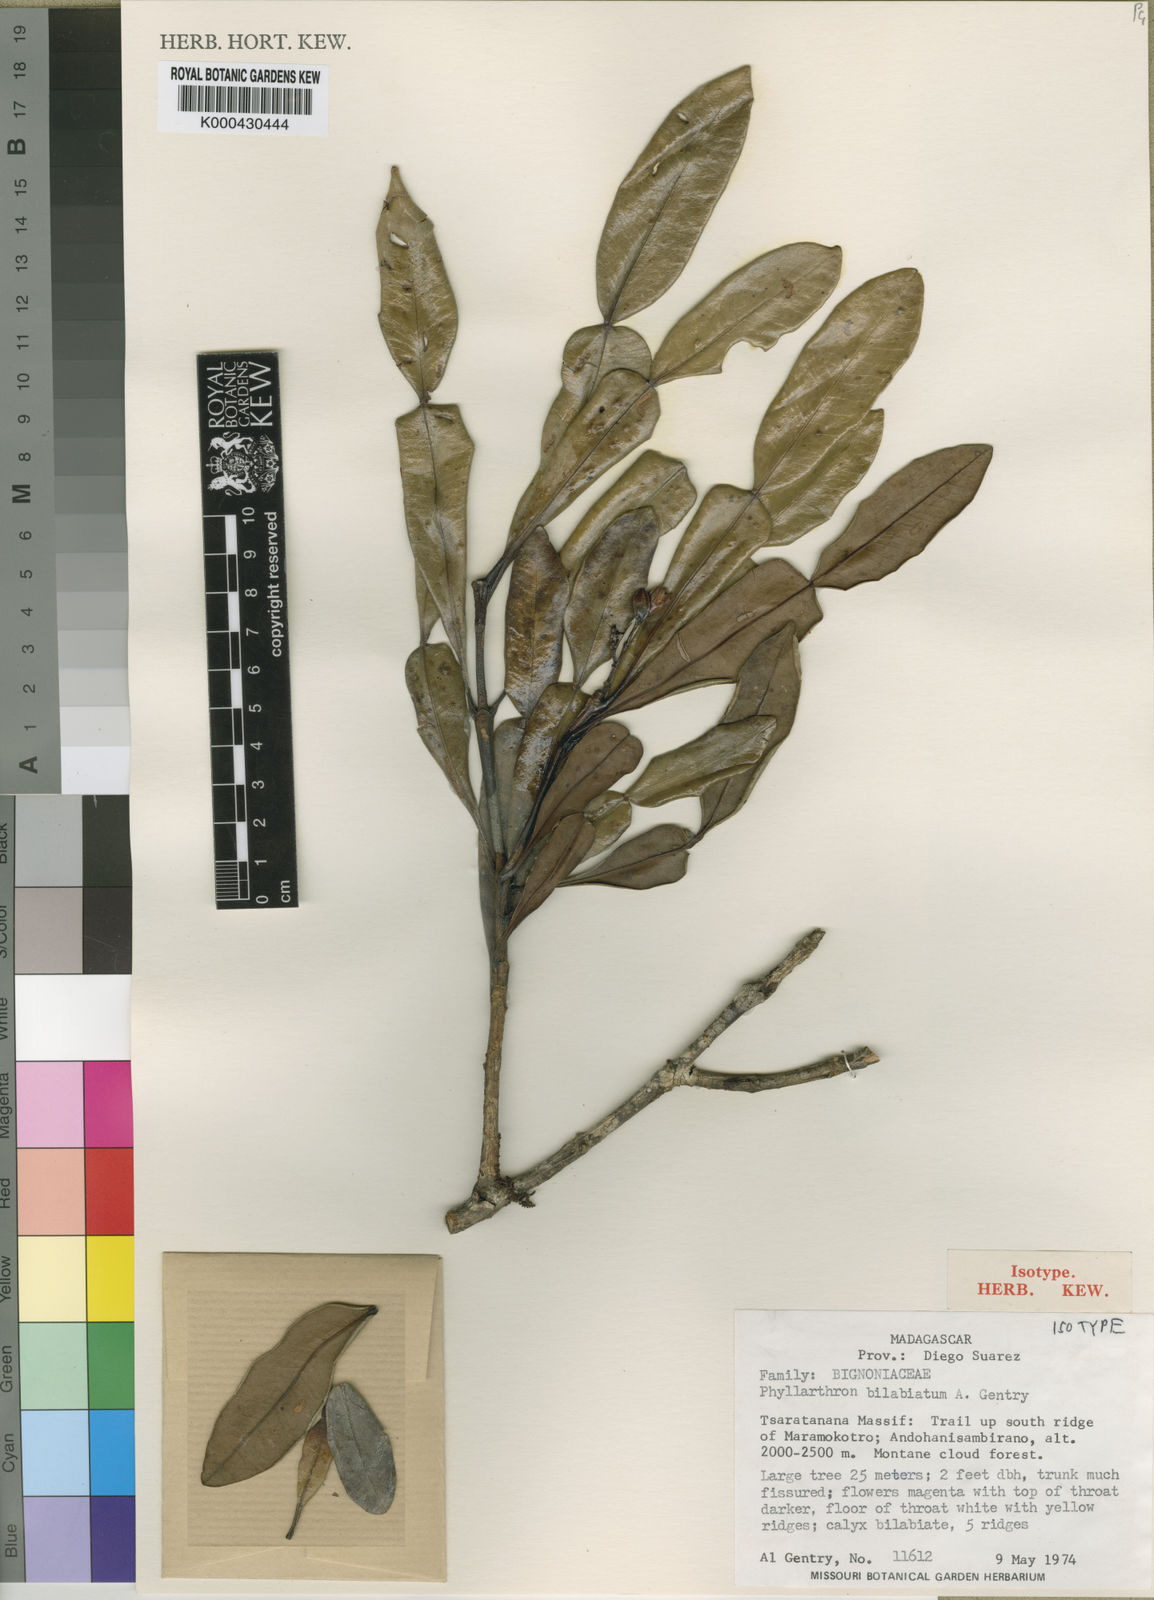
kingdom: Plantae
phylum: Tracheophyta
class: Magnoliopsida
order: Lamiales
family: Bignoniaceae
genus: Phyllarthron
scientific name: Phyllarthron bilabiatum
